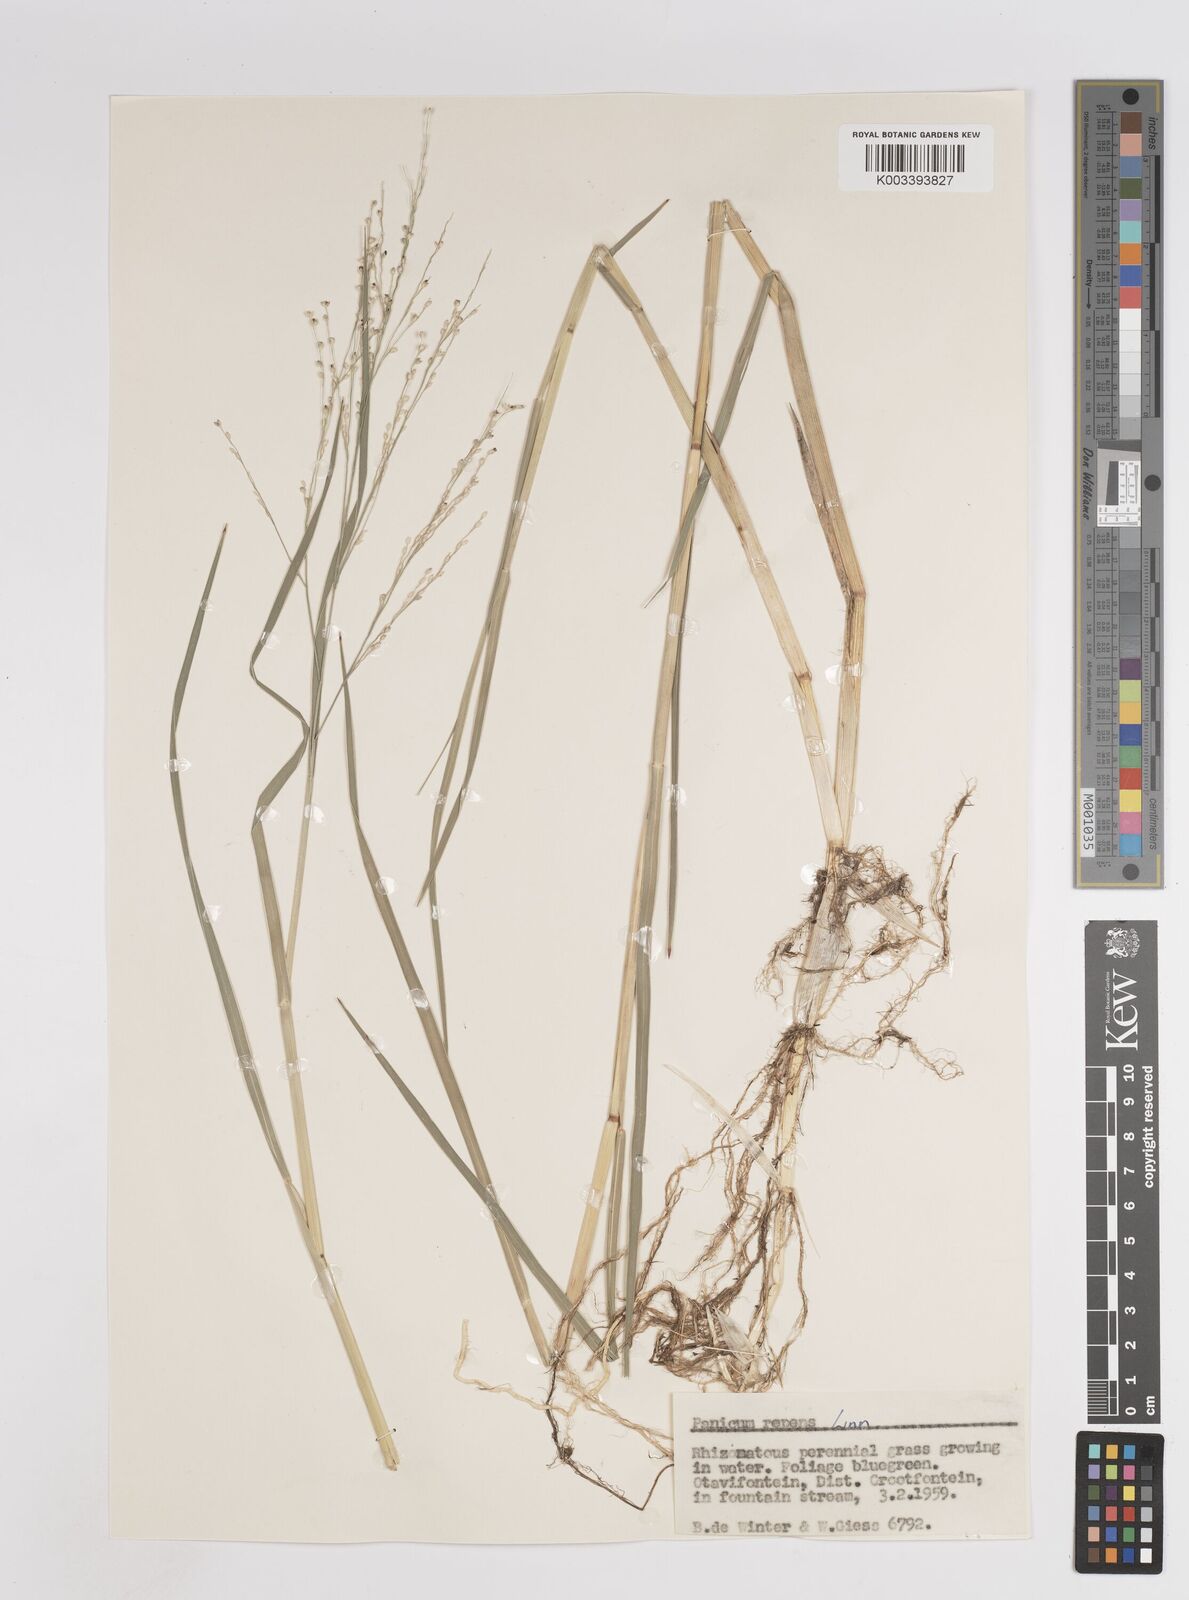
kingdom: Plantae
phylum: Tracheophyta
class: Liliopsida
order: Poales
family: Poaceae
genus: Panicum
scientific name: Panicum repens
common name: Torpedo grass
